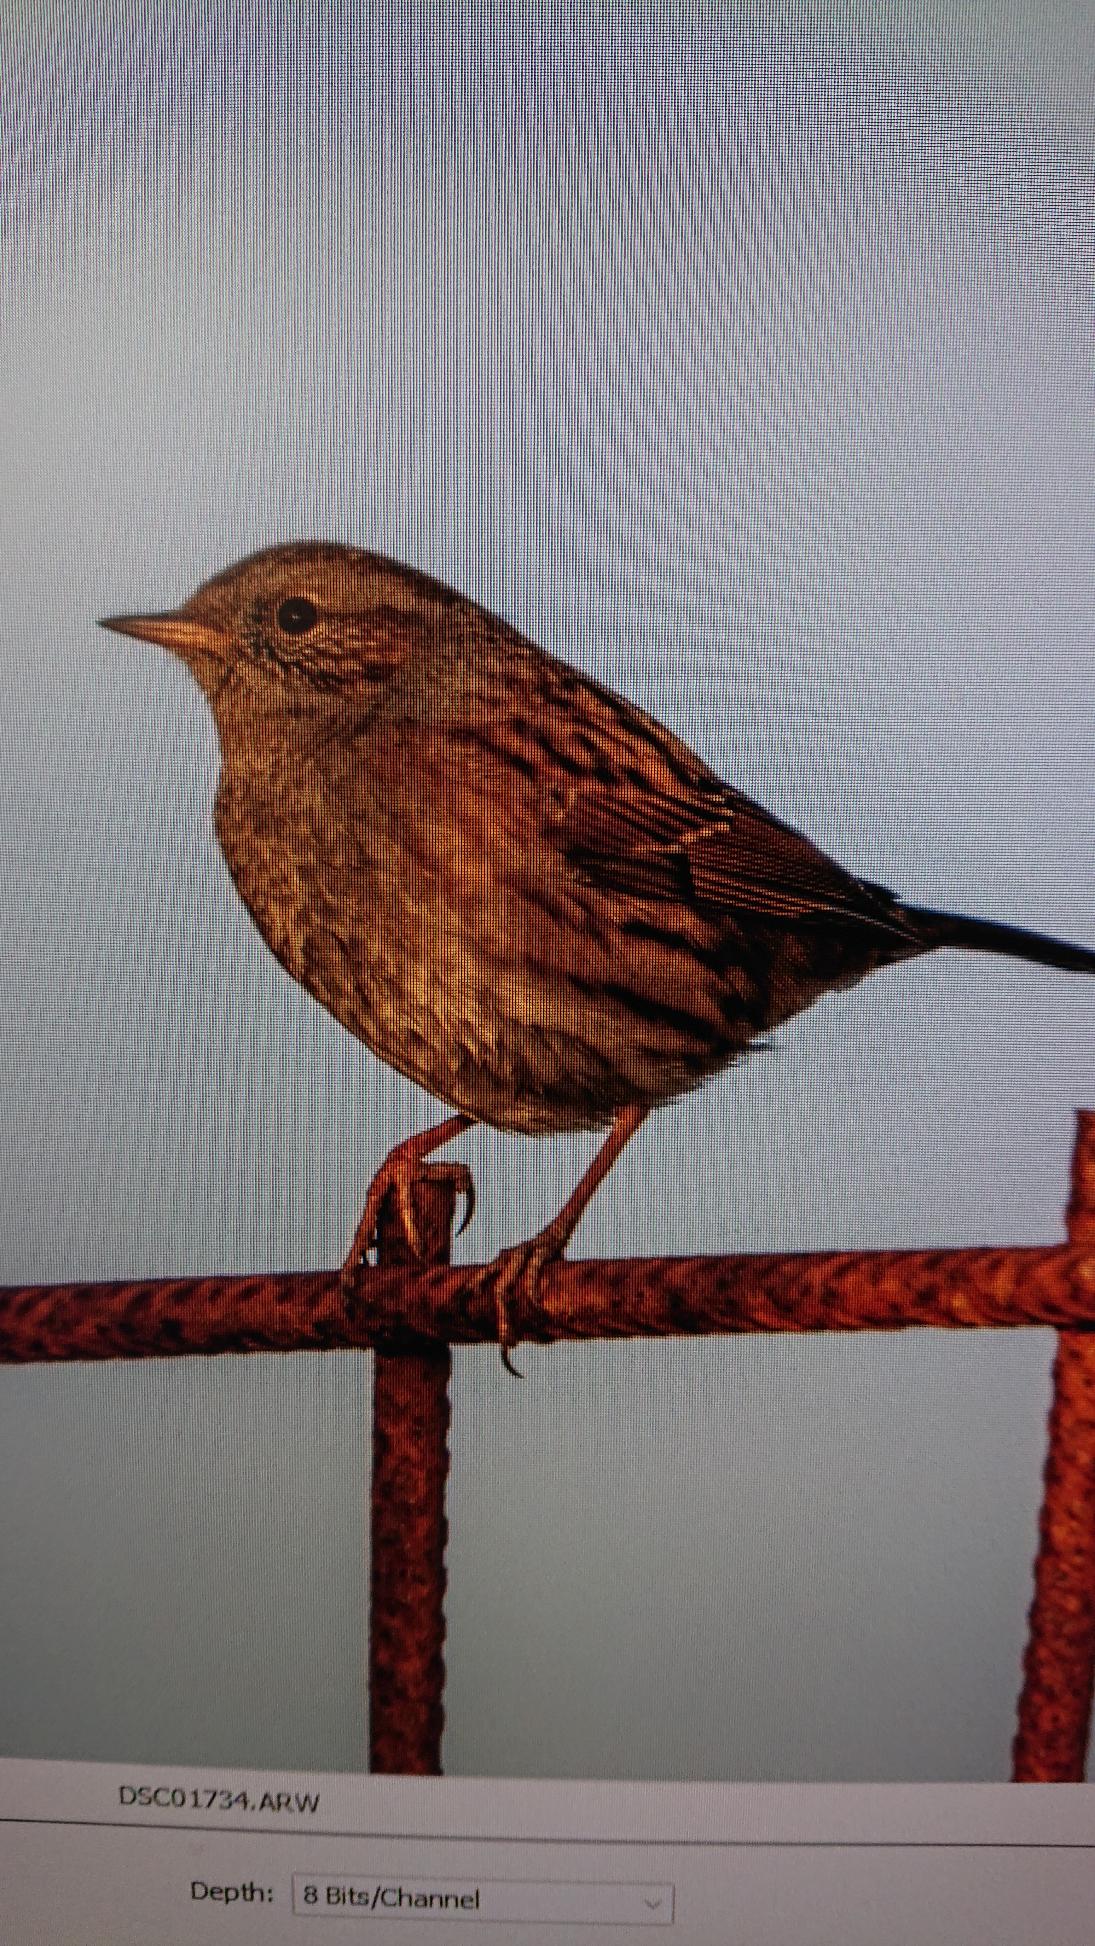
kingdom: Animalia
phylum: Chordata
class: Aves
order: Passeriformes
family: Prunellidae
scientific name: Prunellidae
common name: Jernspurve
